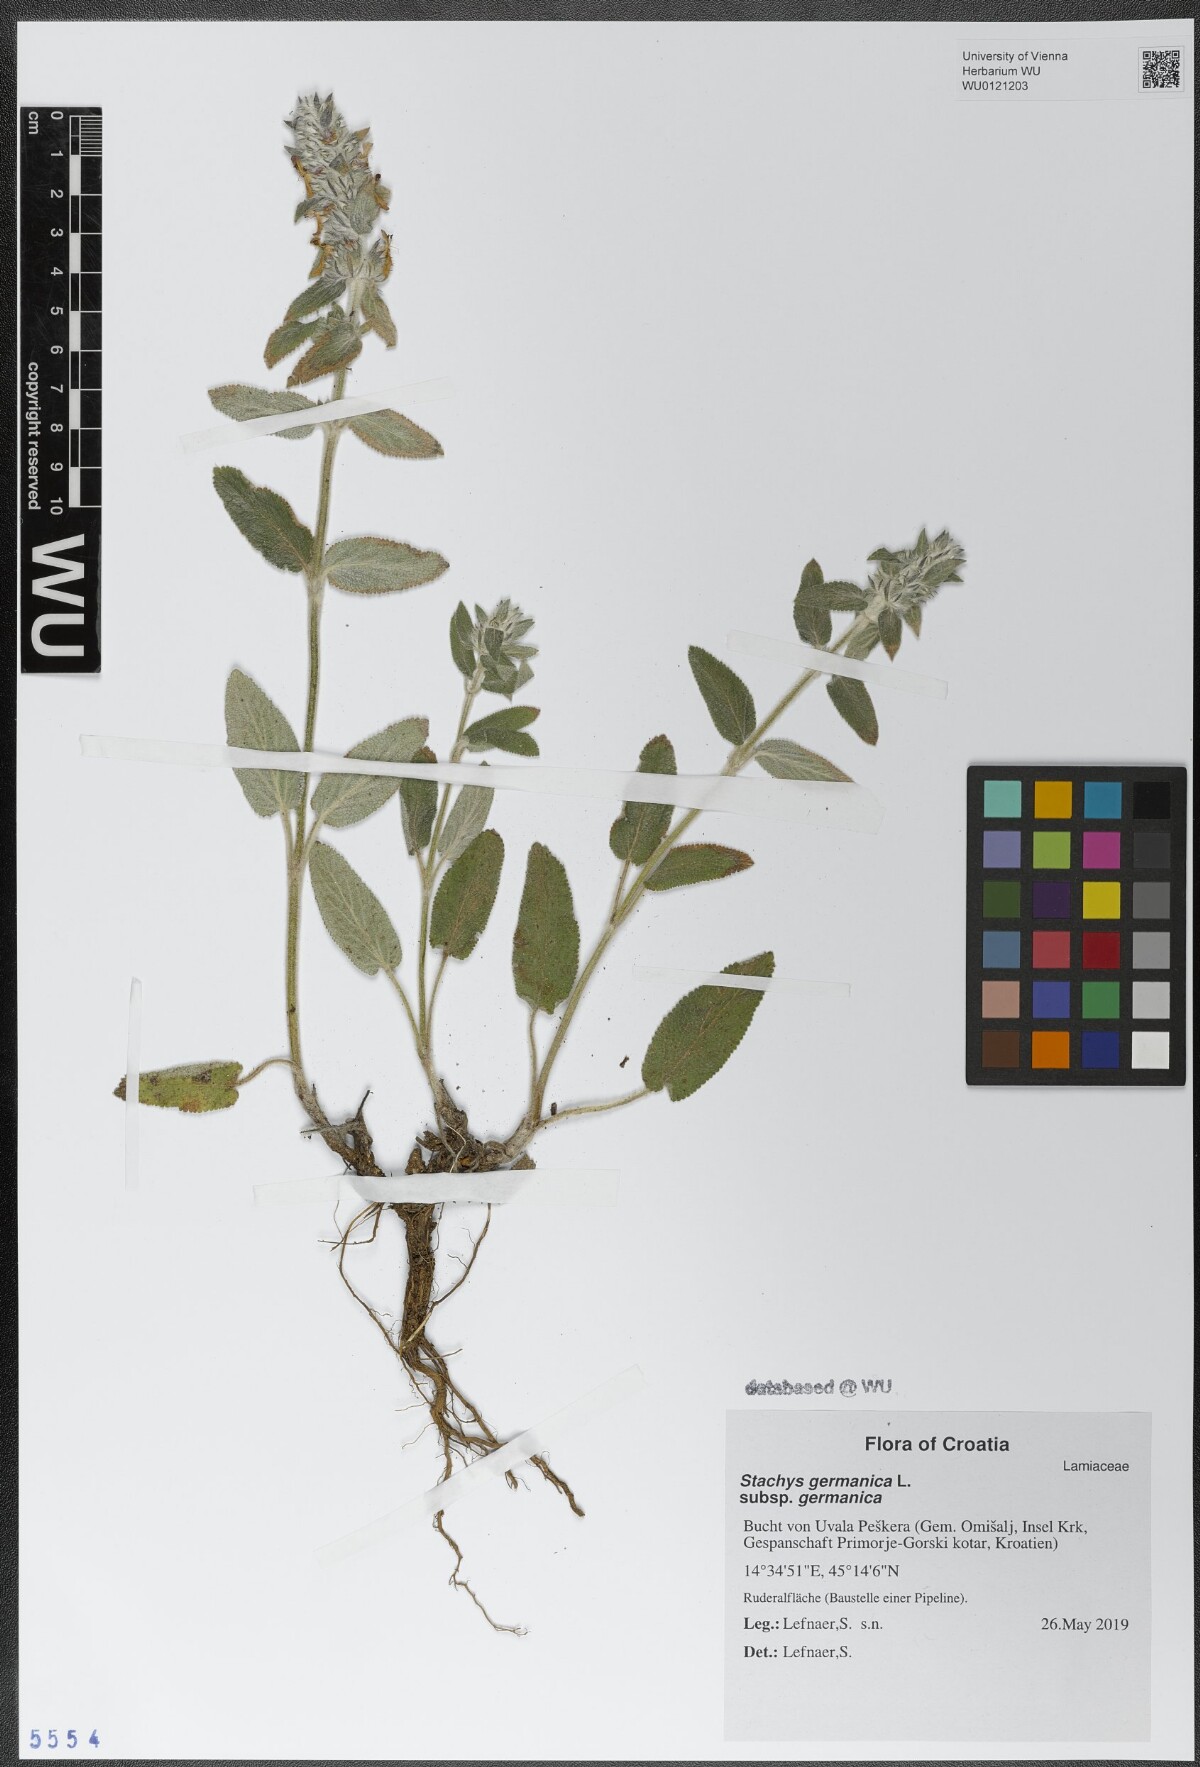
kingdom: Plantae
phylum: Tracheophyta
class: Magnoliopsida
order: Lamiales
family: Lamiaceae
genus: Stachys
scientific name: Stachys germanica
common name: Downy woundwort
